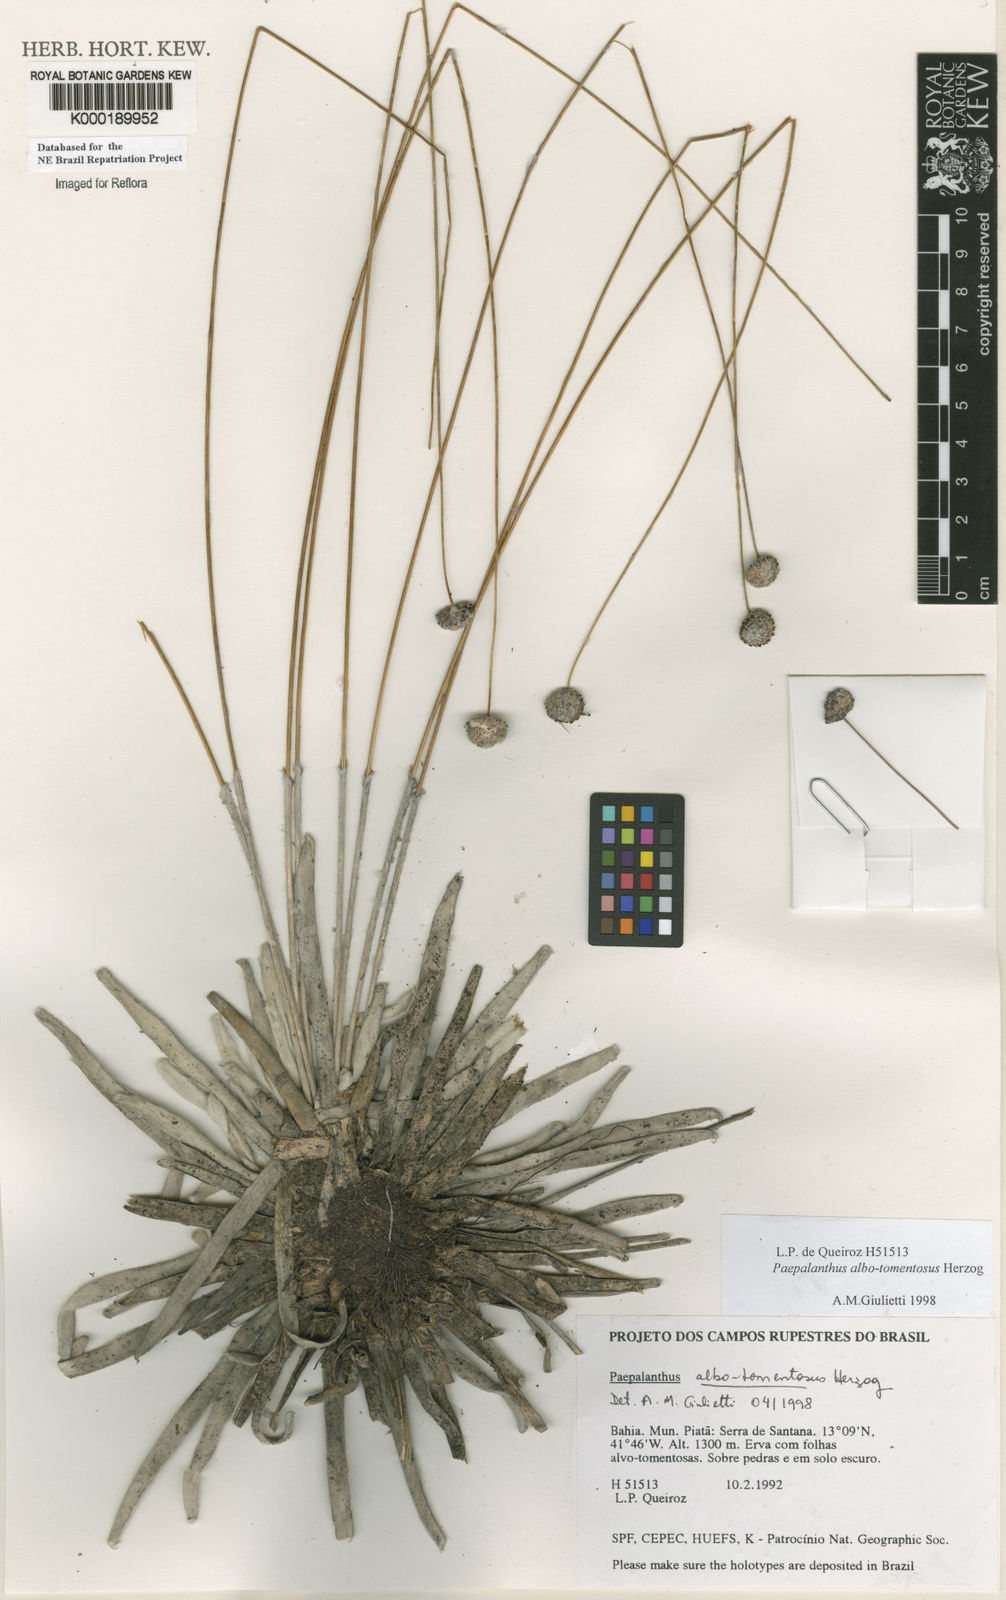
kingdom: Plantae
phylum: Tracheophyta
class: Liliopsida
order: Poales
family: Eriocaulaceae
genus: Paepalanthus
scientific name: Paepalanthus albotomentosus
